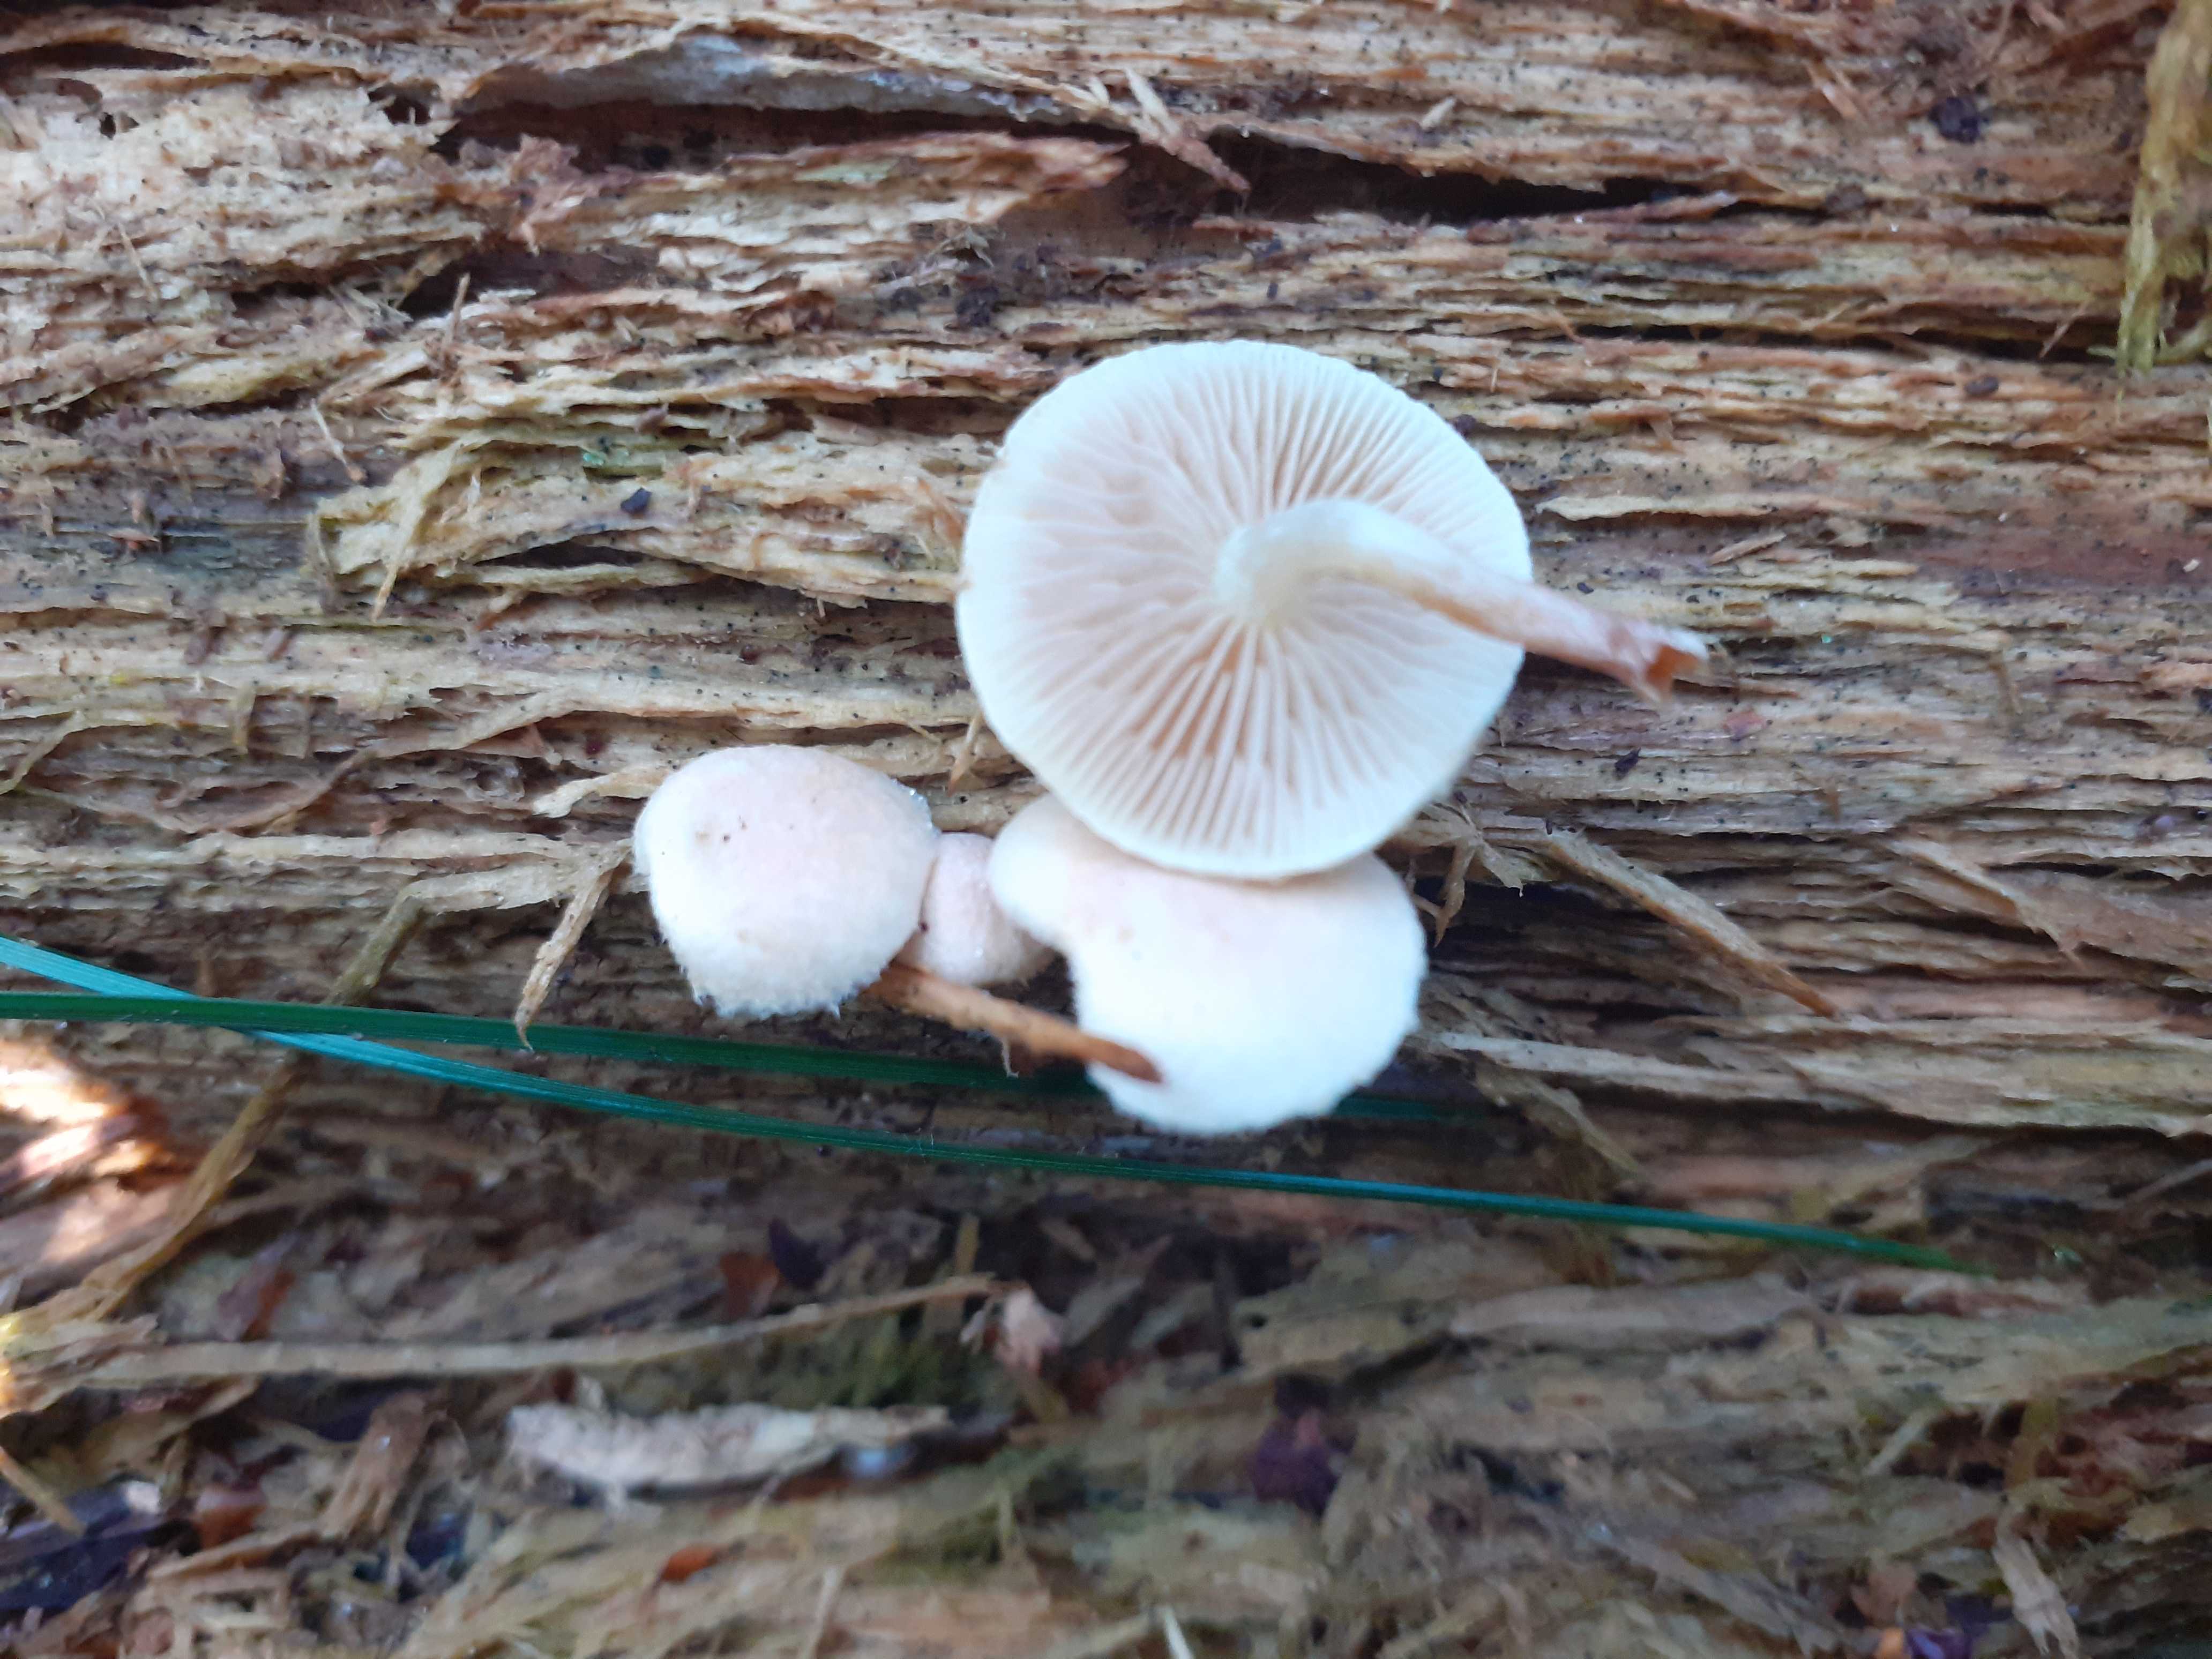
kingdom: Fungi
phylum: Basidiomycota
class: Agaricomycetes
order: Agaricales
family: Strophariaceae
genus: Pholiota
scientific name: Pholiota scamba
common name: dværg-skælhat
